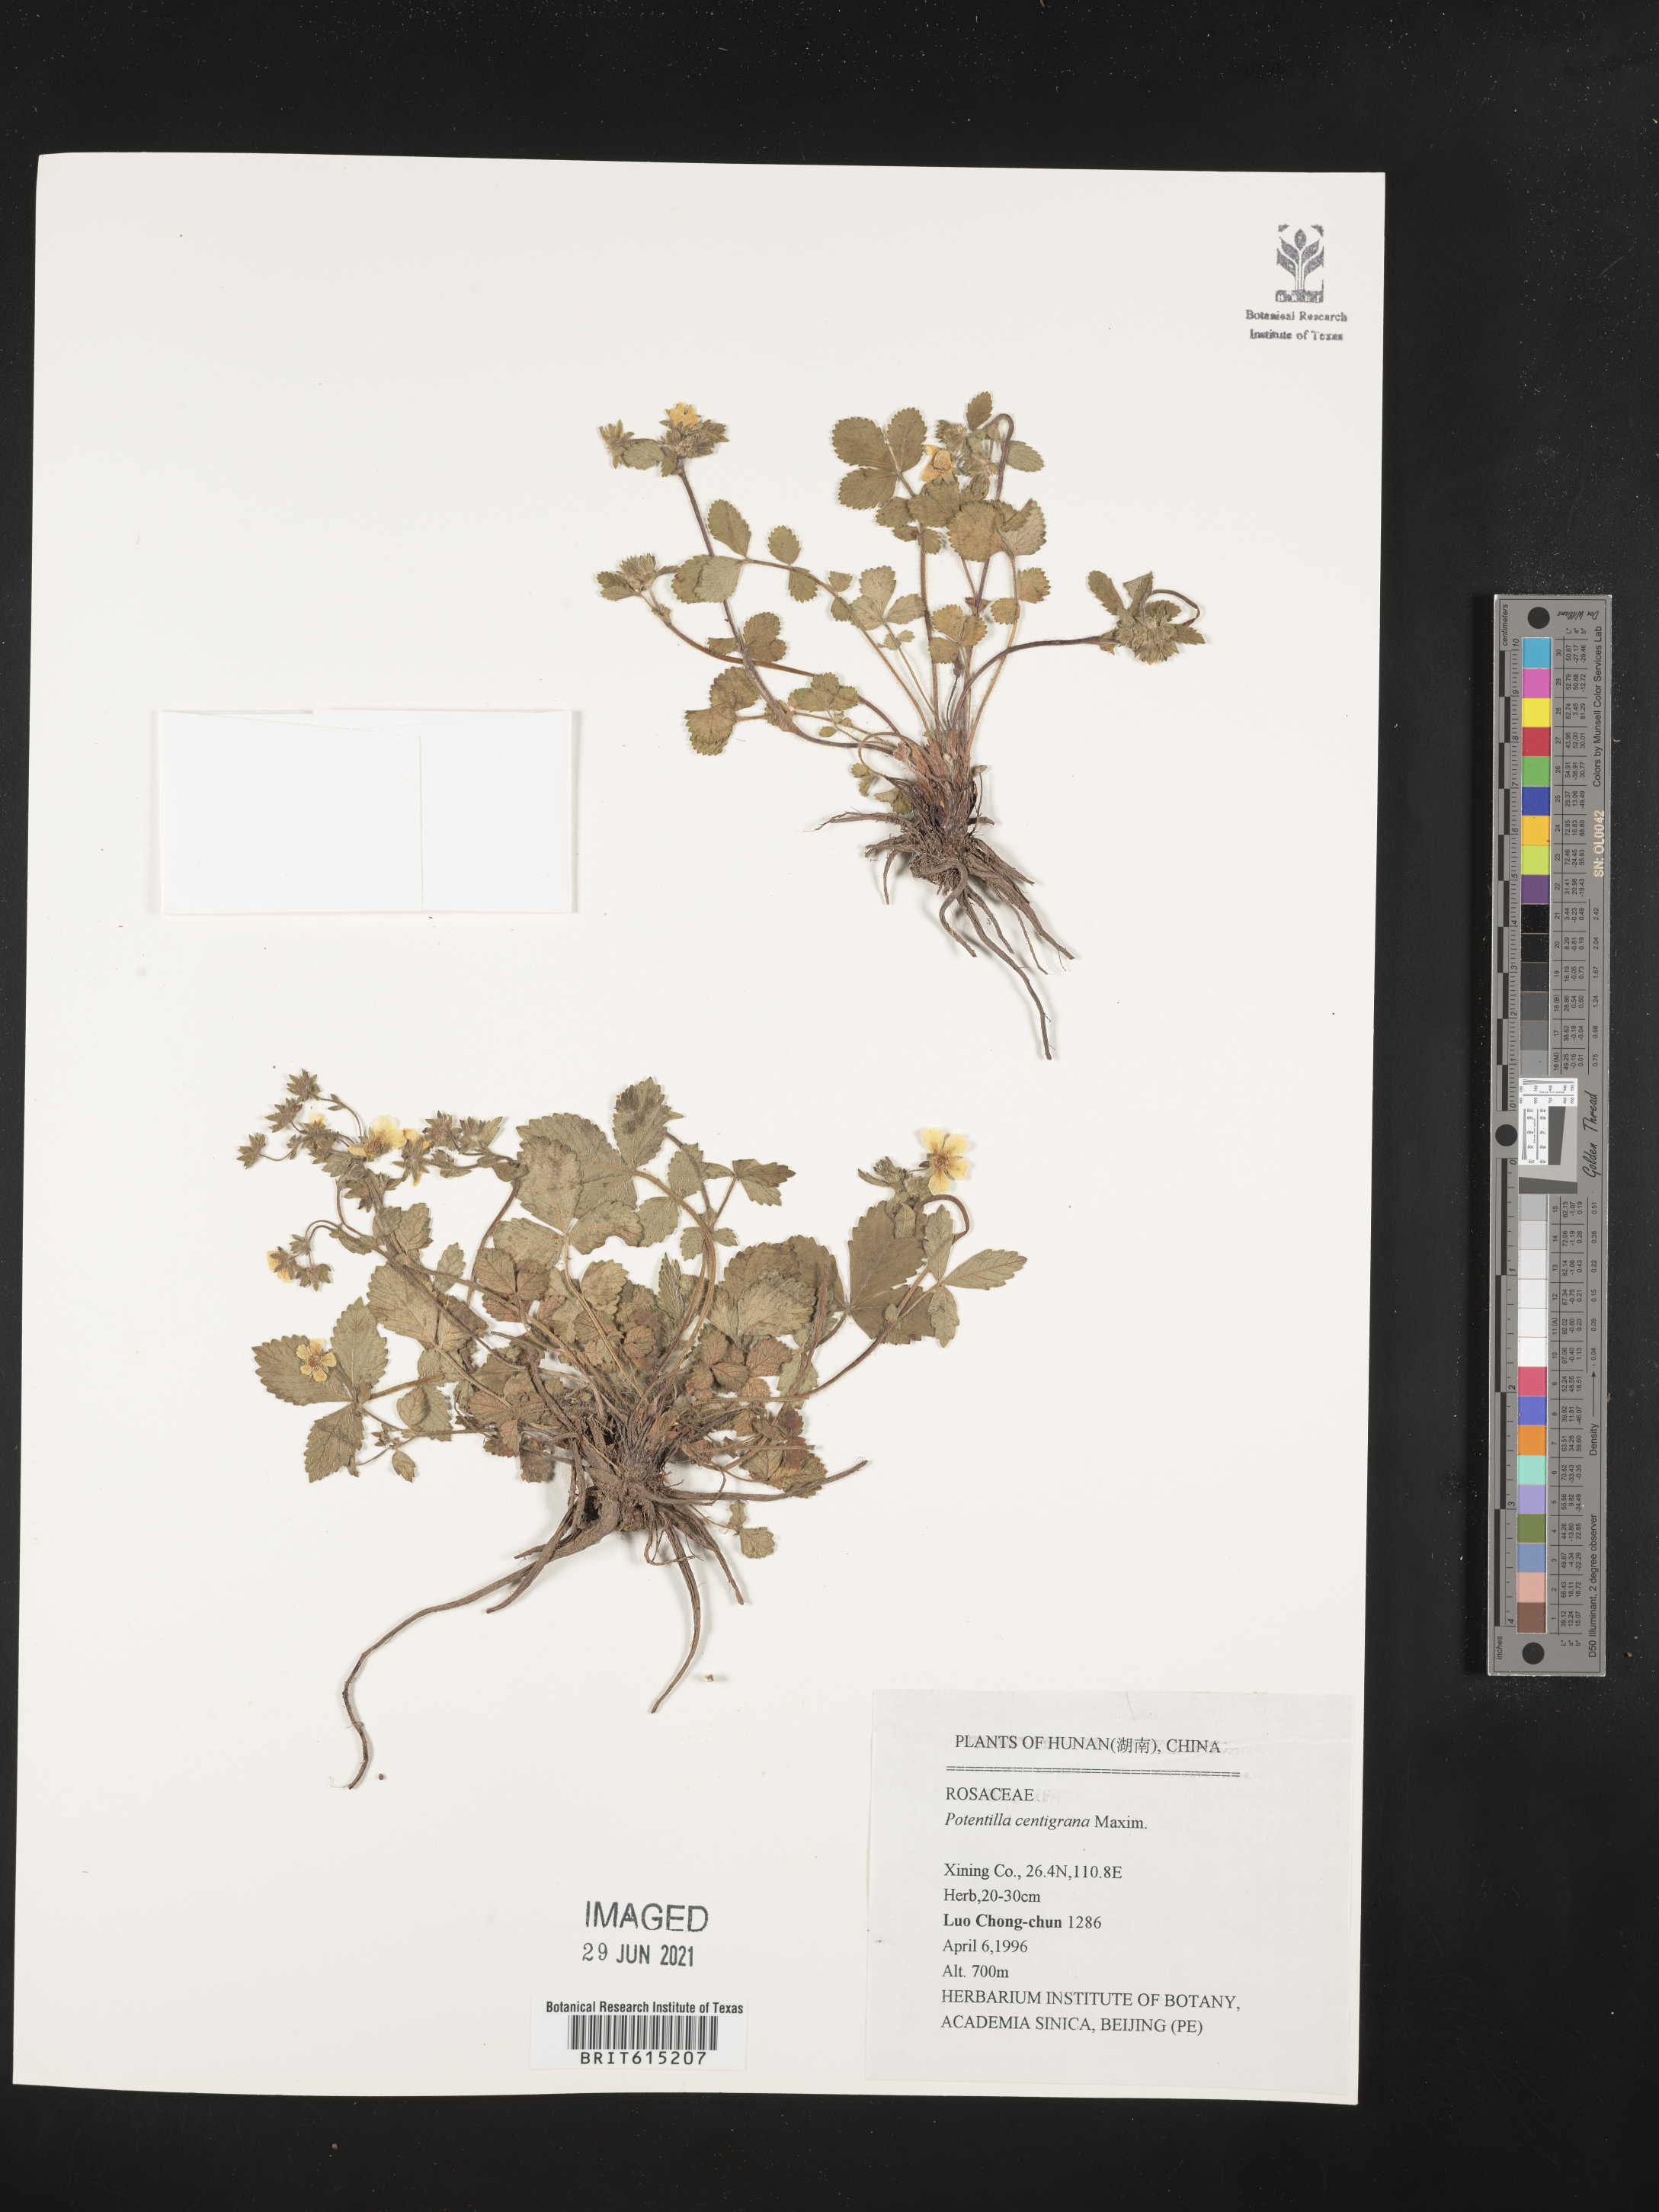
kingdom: Plantae
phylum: Tracheophyta
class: Magnoliopsida
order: Rosales
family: Rosaceae
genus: Potentilla
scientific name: Potentilla centigrana
